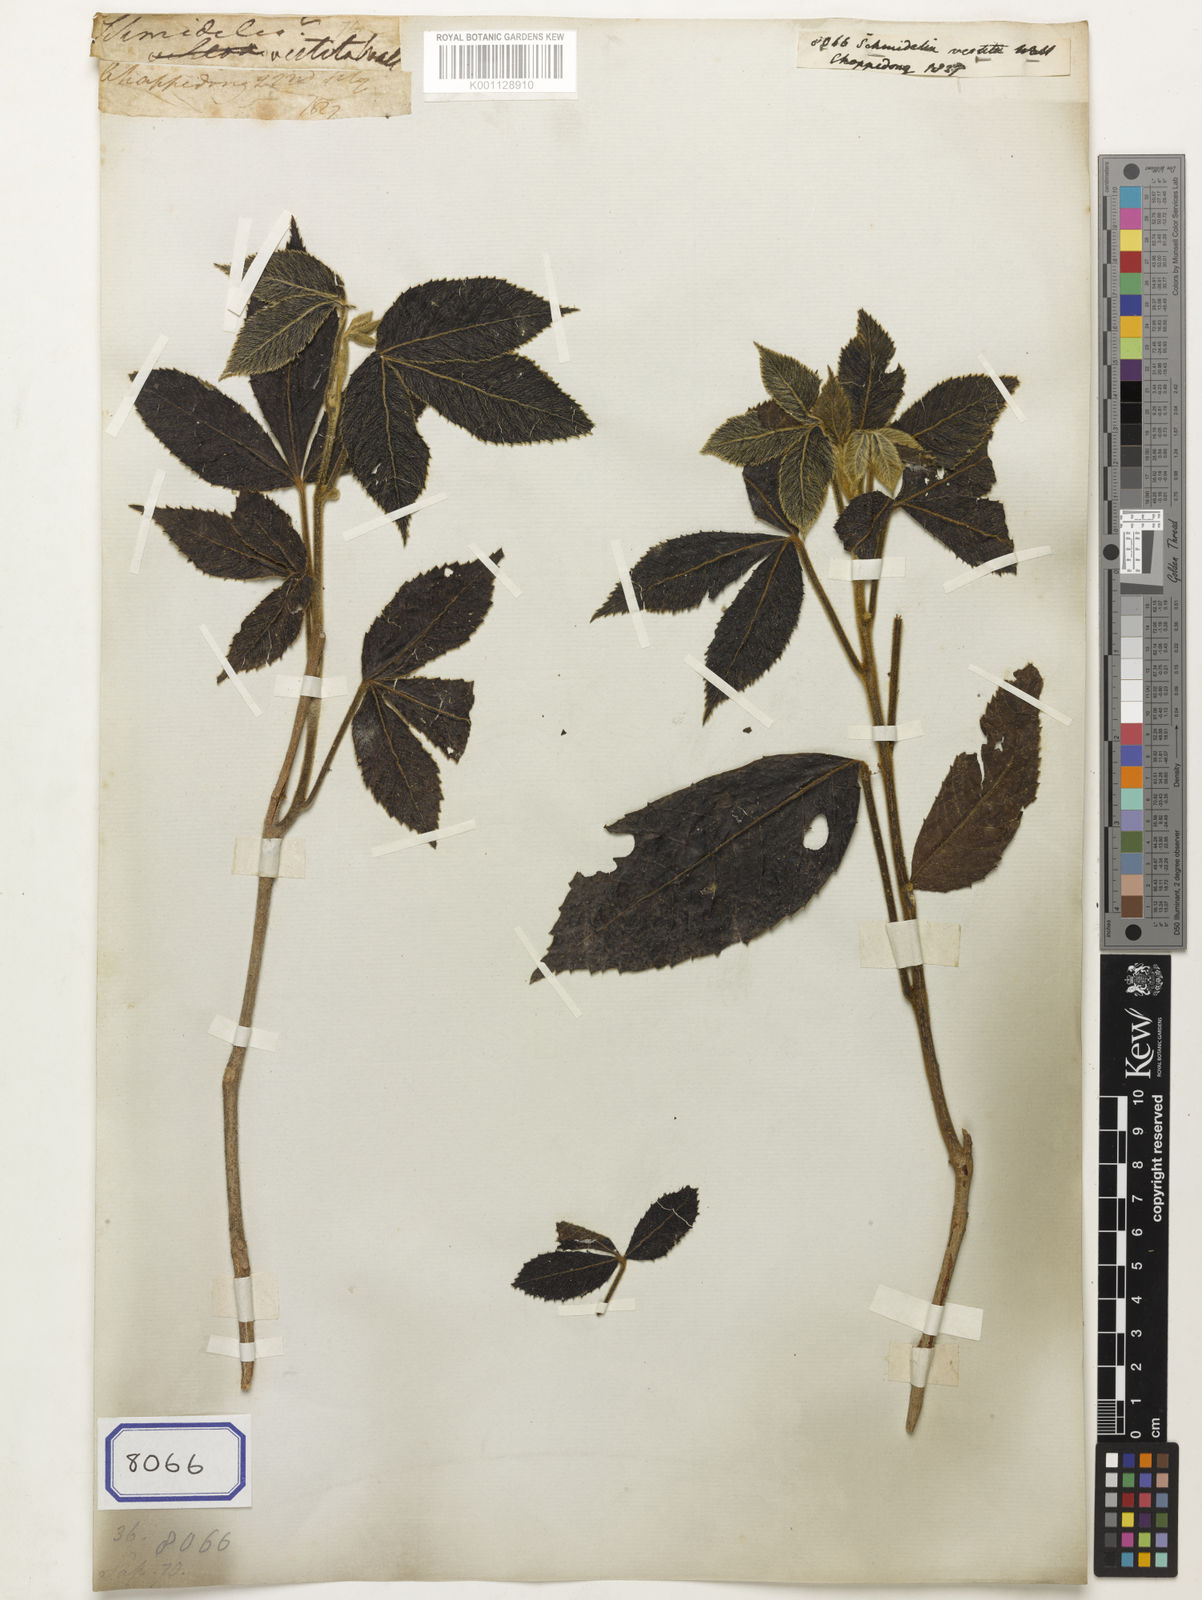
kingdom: Plantae
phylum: Tracheophyta
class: Magnoliopsida
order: Sapindales
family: Sapindaceae
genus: Allophylus
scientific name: Allophylus cobbe
